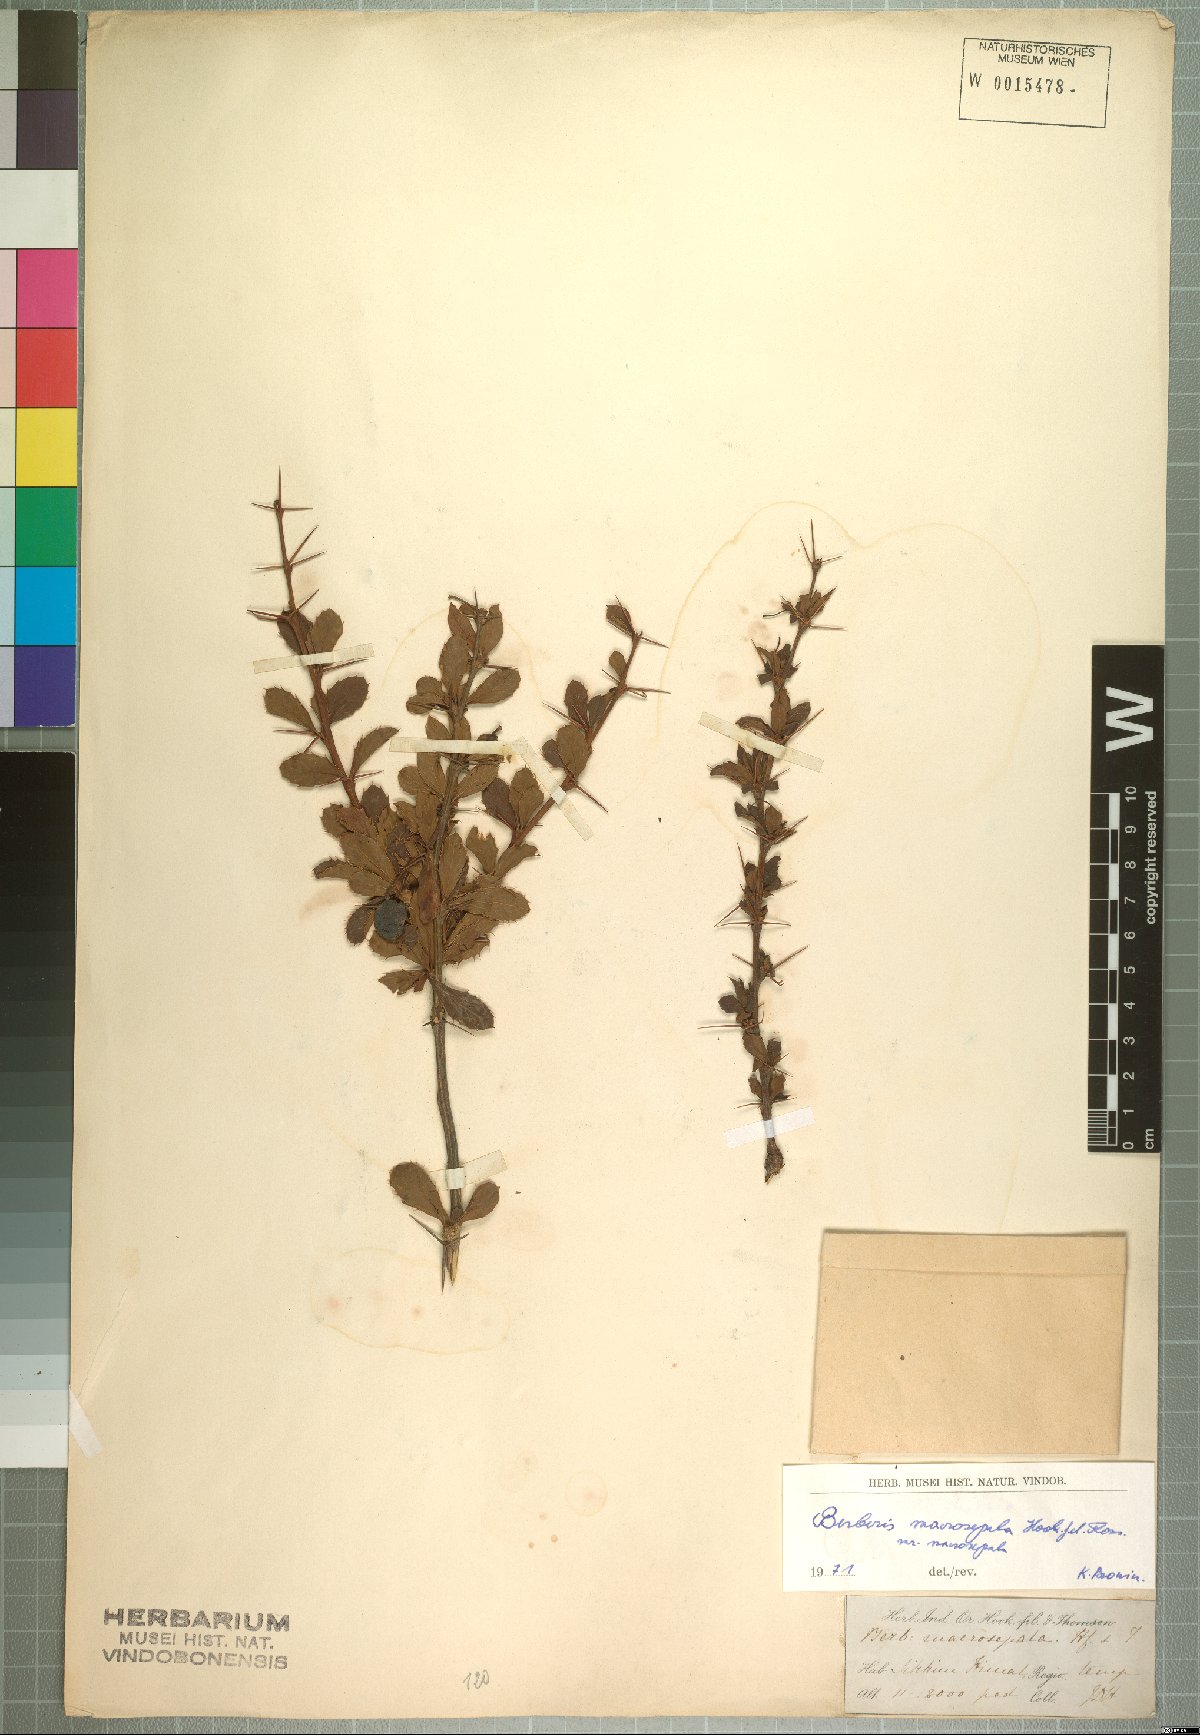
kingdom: Plantae
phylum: Tracheophyta
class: Magnoliopsida
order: Ranunculales
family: Berberidaceae
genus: Berberis
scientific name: Berberis macrosepala
